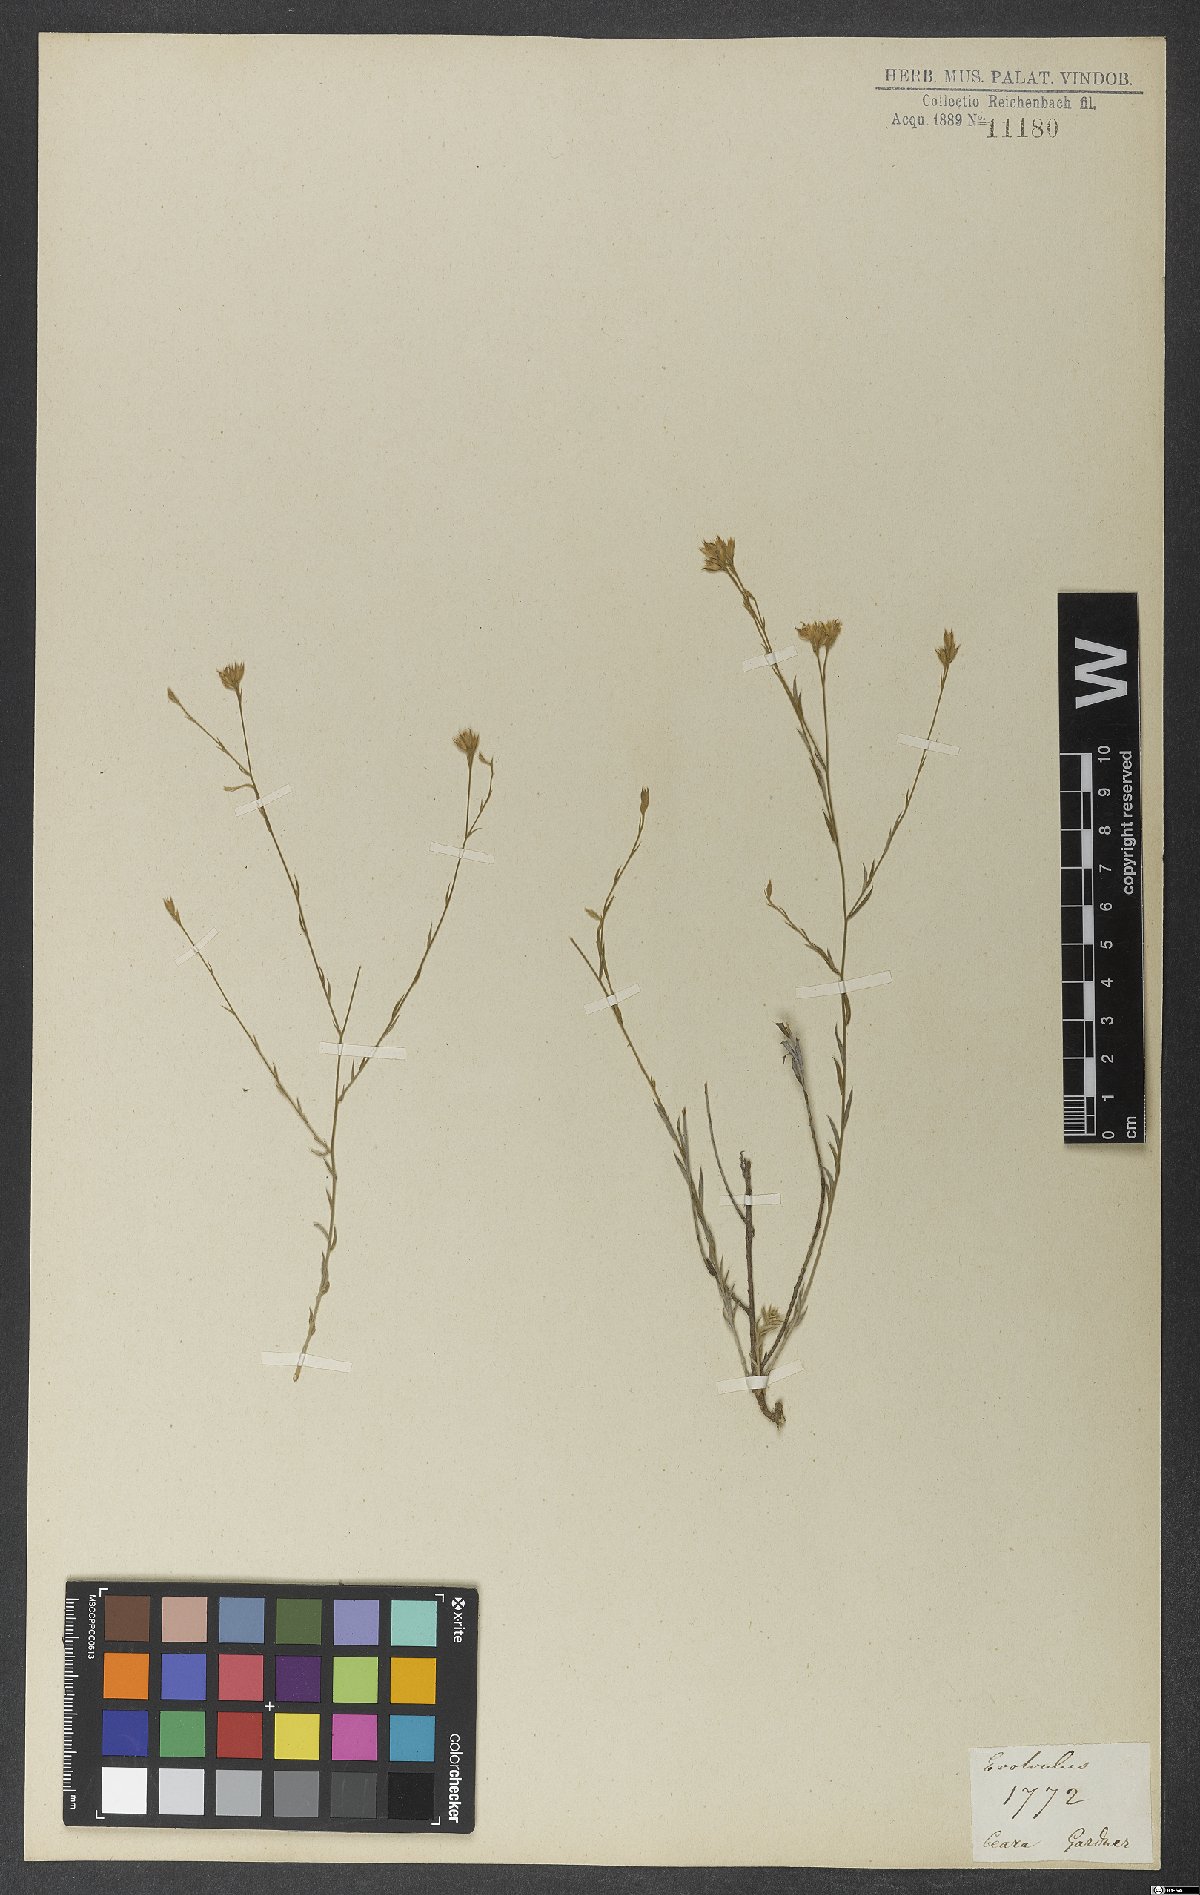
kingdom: Plantae
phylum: Tracheophyta
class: Magnoliopsida
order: Solanales
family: Convolvulaceae
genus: Evolvulus
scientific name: Evolvulus gypsophiloides
